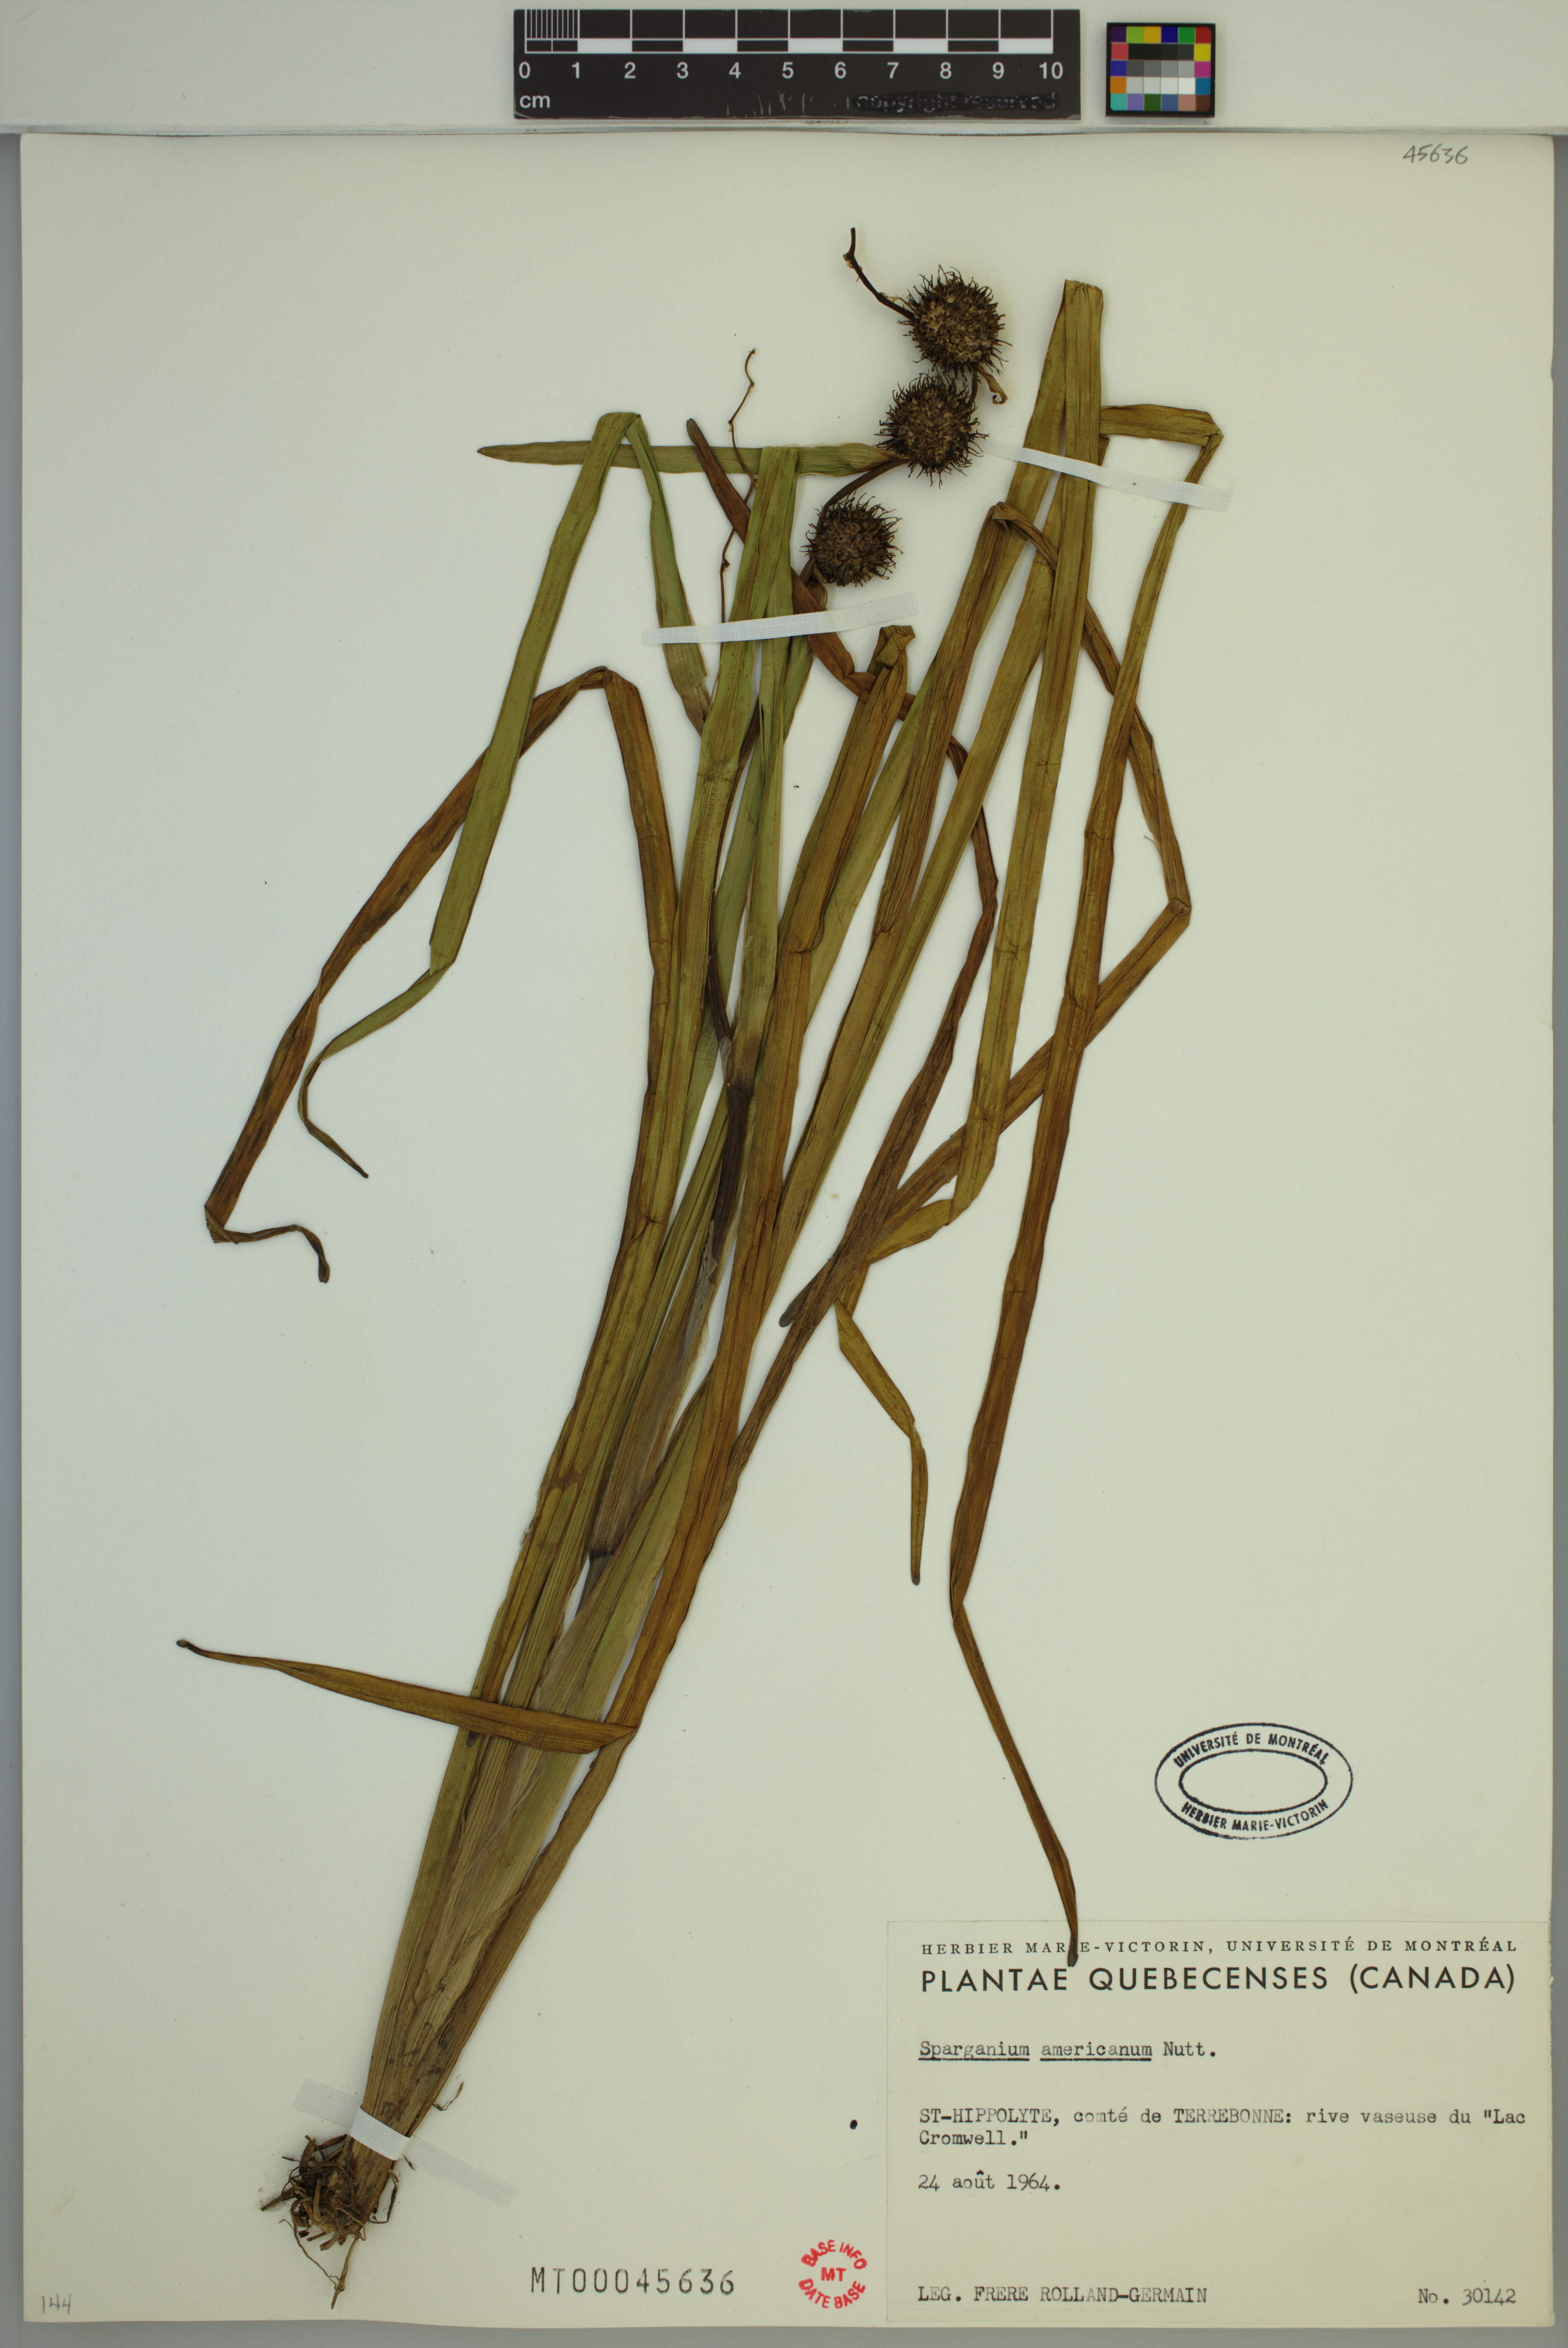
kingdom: Plantae
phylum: Tracheophyta
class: Liliopsida
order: Poales
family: Typhaceae
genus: Sparganium
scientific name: Sparganium americanum
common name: American burreed
